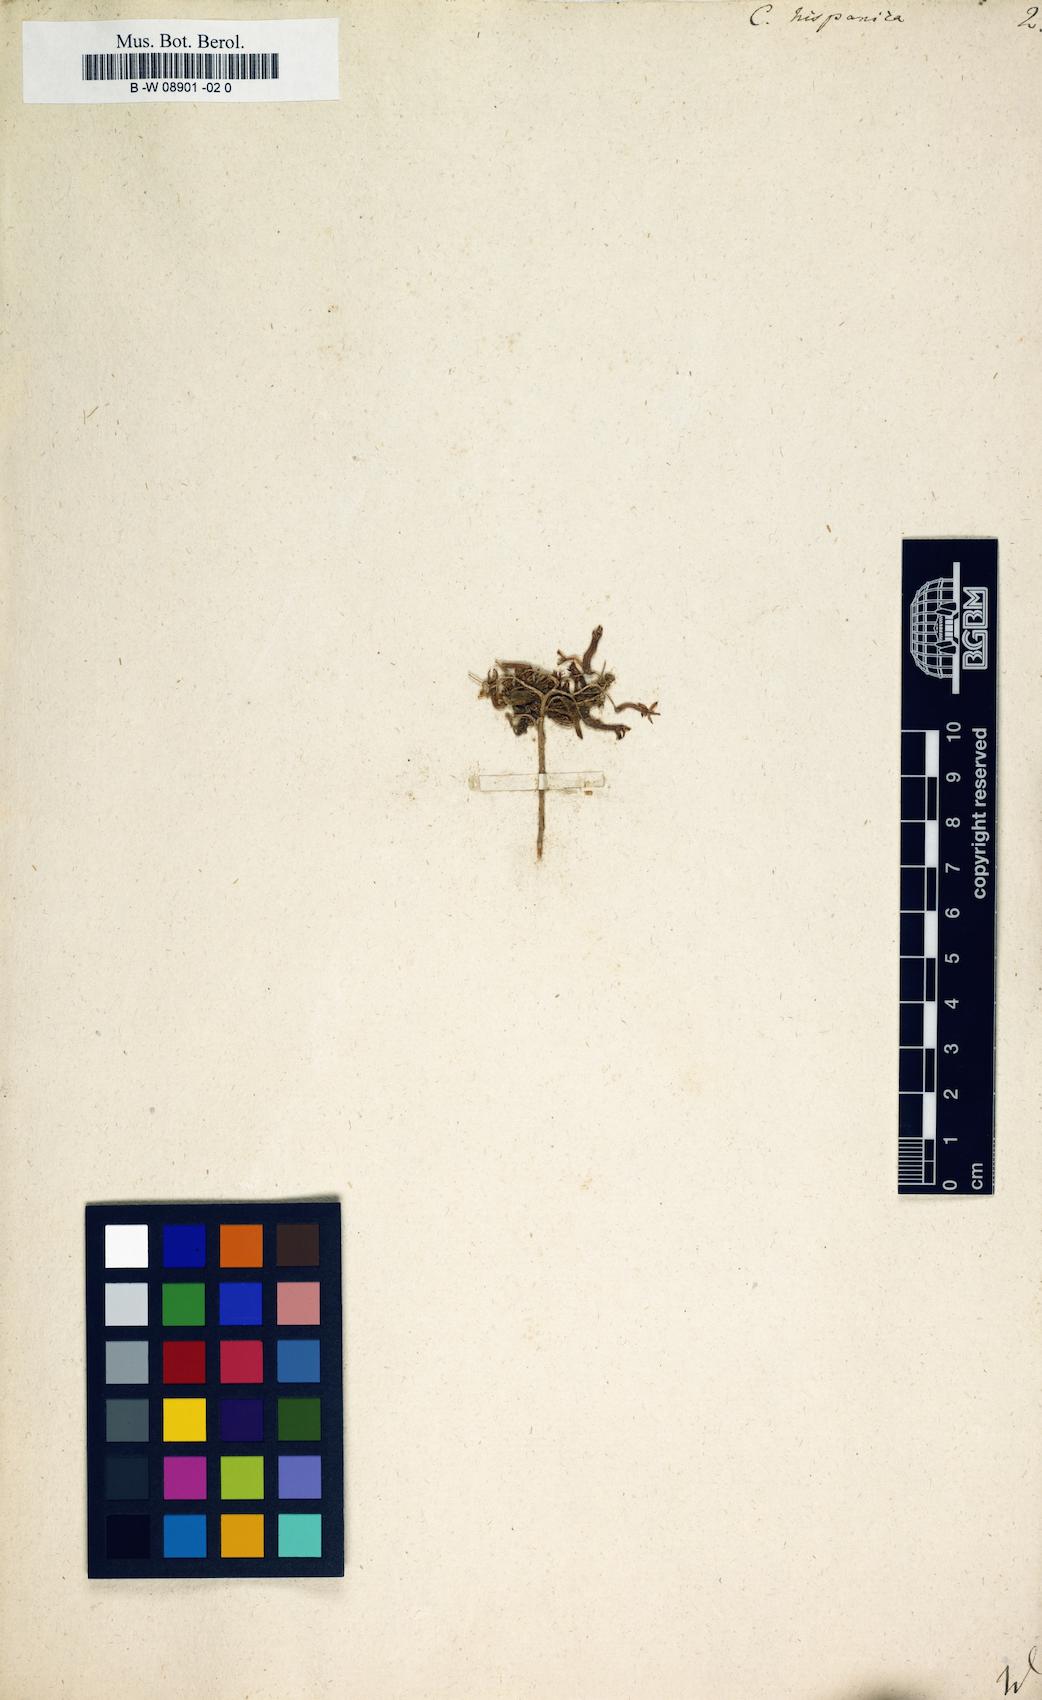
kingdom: Plantae
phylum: Tracheophyta
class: Magnoliopsida
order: Saxifragales
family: Crassulaceae
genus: Pistorinia
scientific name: Pistorinia
